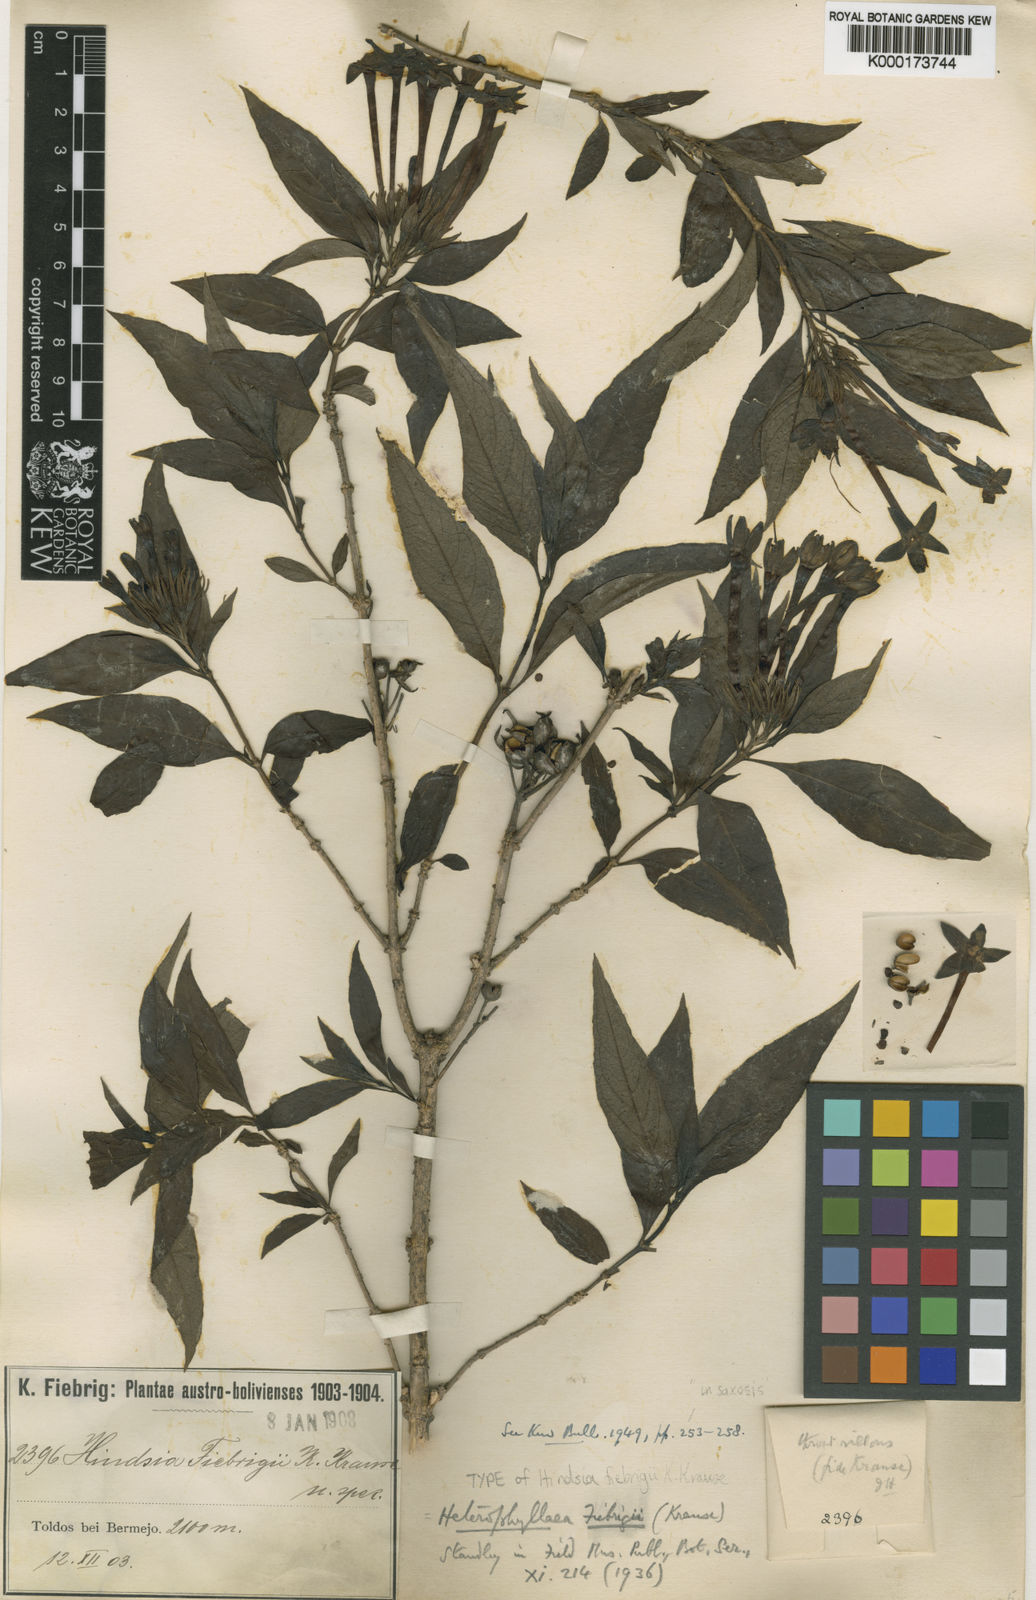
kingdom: Plantae
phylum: Tracheophyta
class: Magnoliopsida
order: Gentianales
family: Rubiaceae
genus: Heterophyllaea
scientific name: Heterophyllaea pustulata
